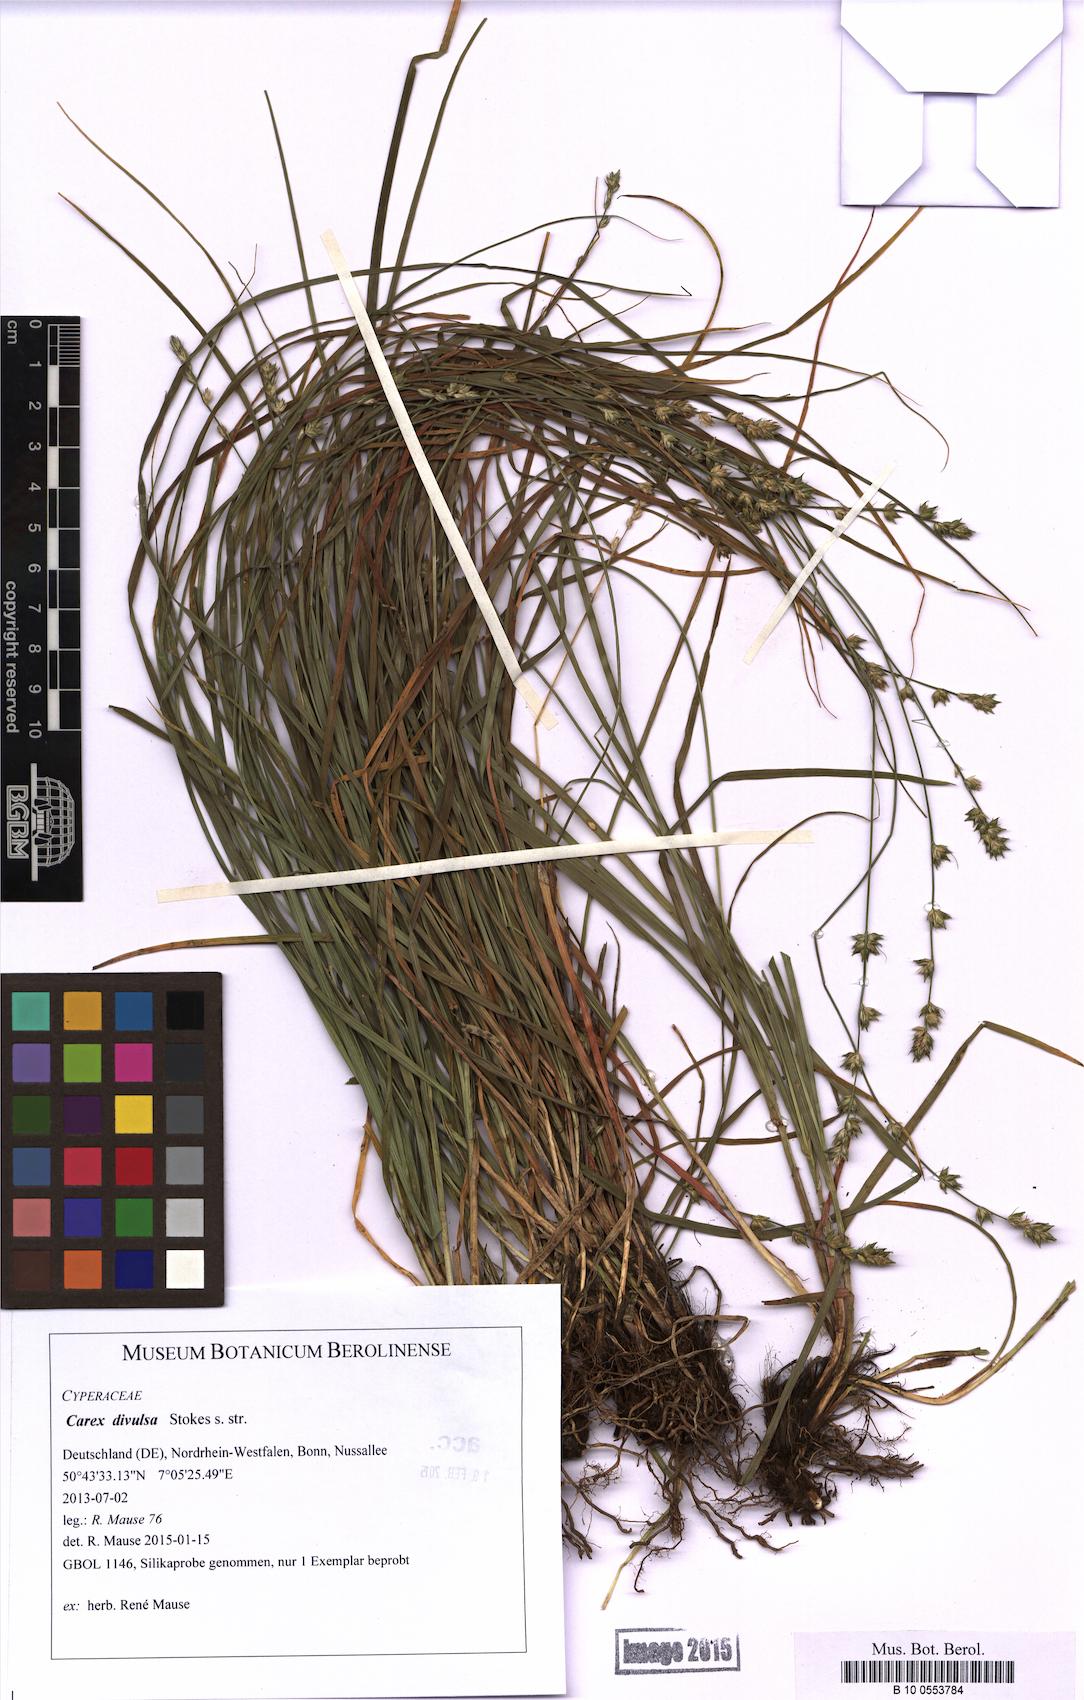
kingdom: Plantae
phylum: Tracheophyta
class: Liliopsida
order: Poales
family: Cyperaceae
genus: Carex
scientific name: Carex divulsa
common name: Grassland sedge
